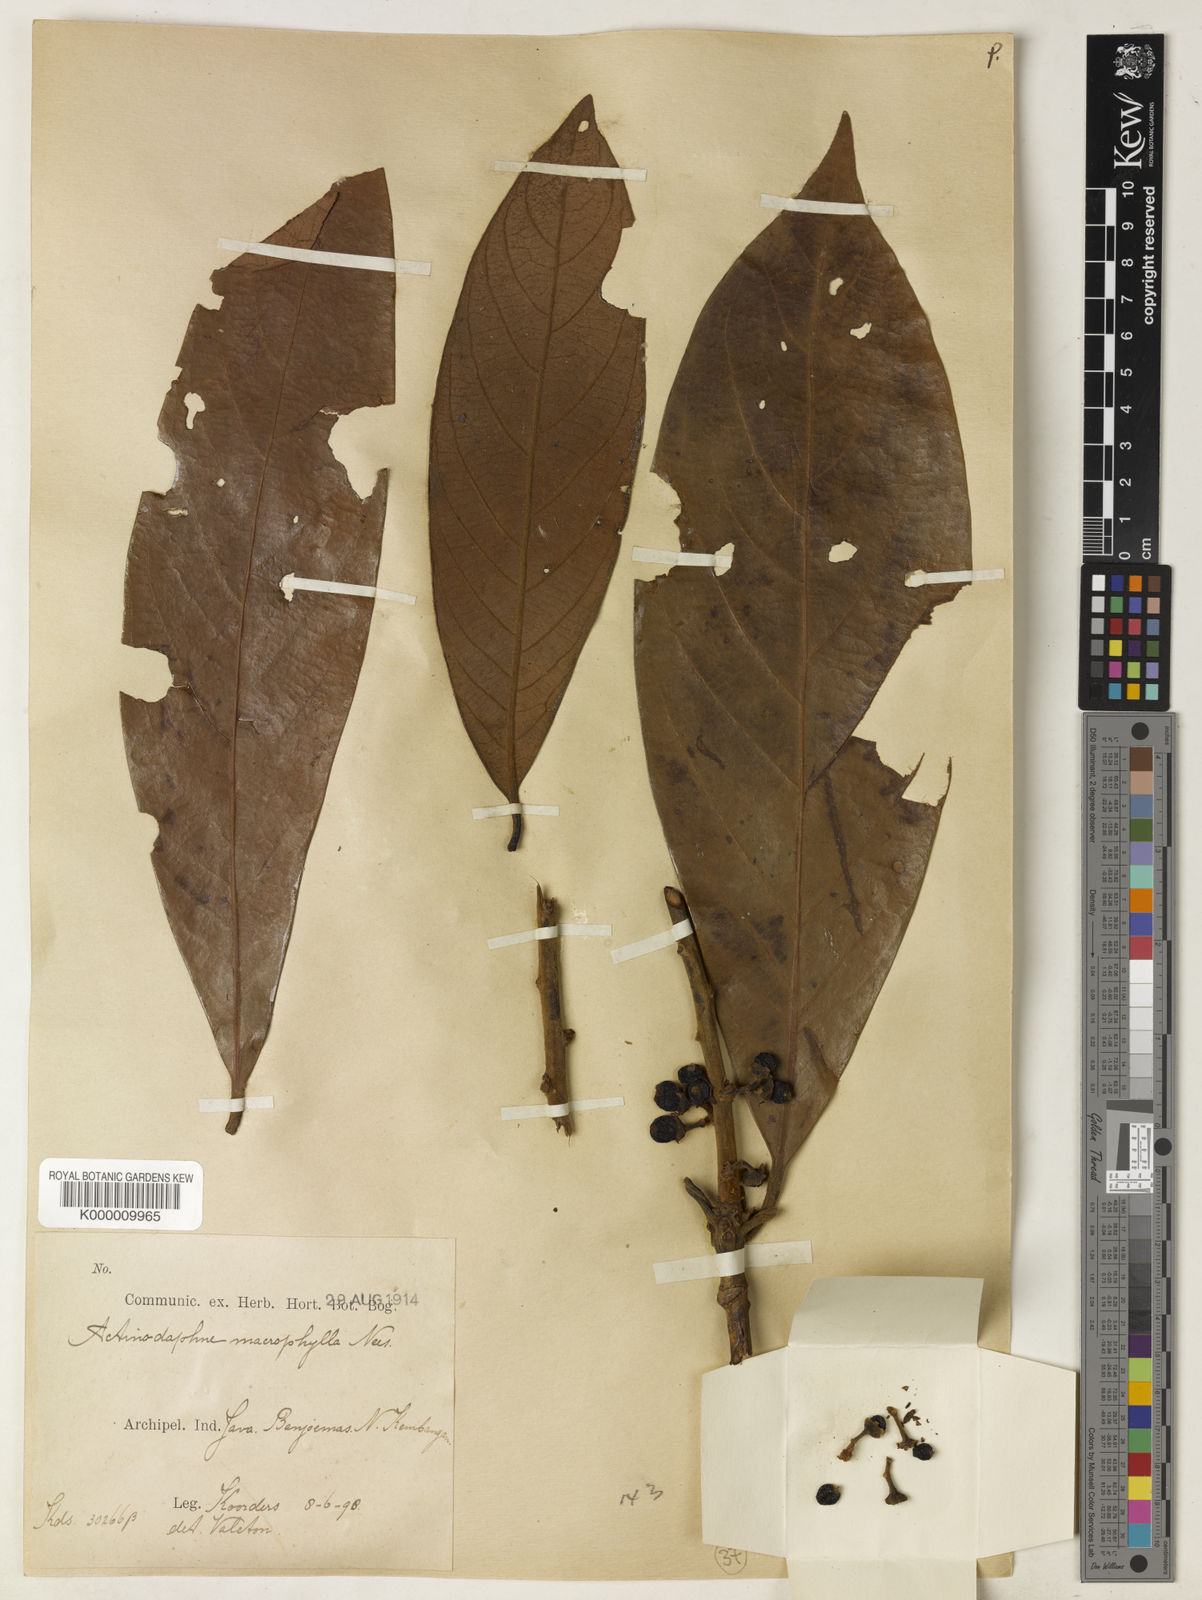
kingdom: Plantae
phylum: Tracheophyta
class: Magnoliopsida
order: Laurales
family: Lauraceae
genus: Actinodaphne
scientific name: Actinodaphne macrophylla
